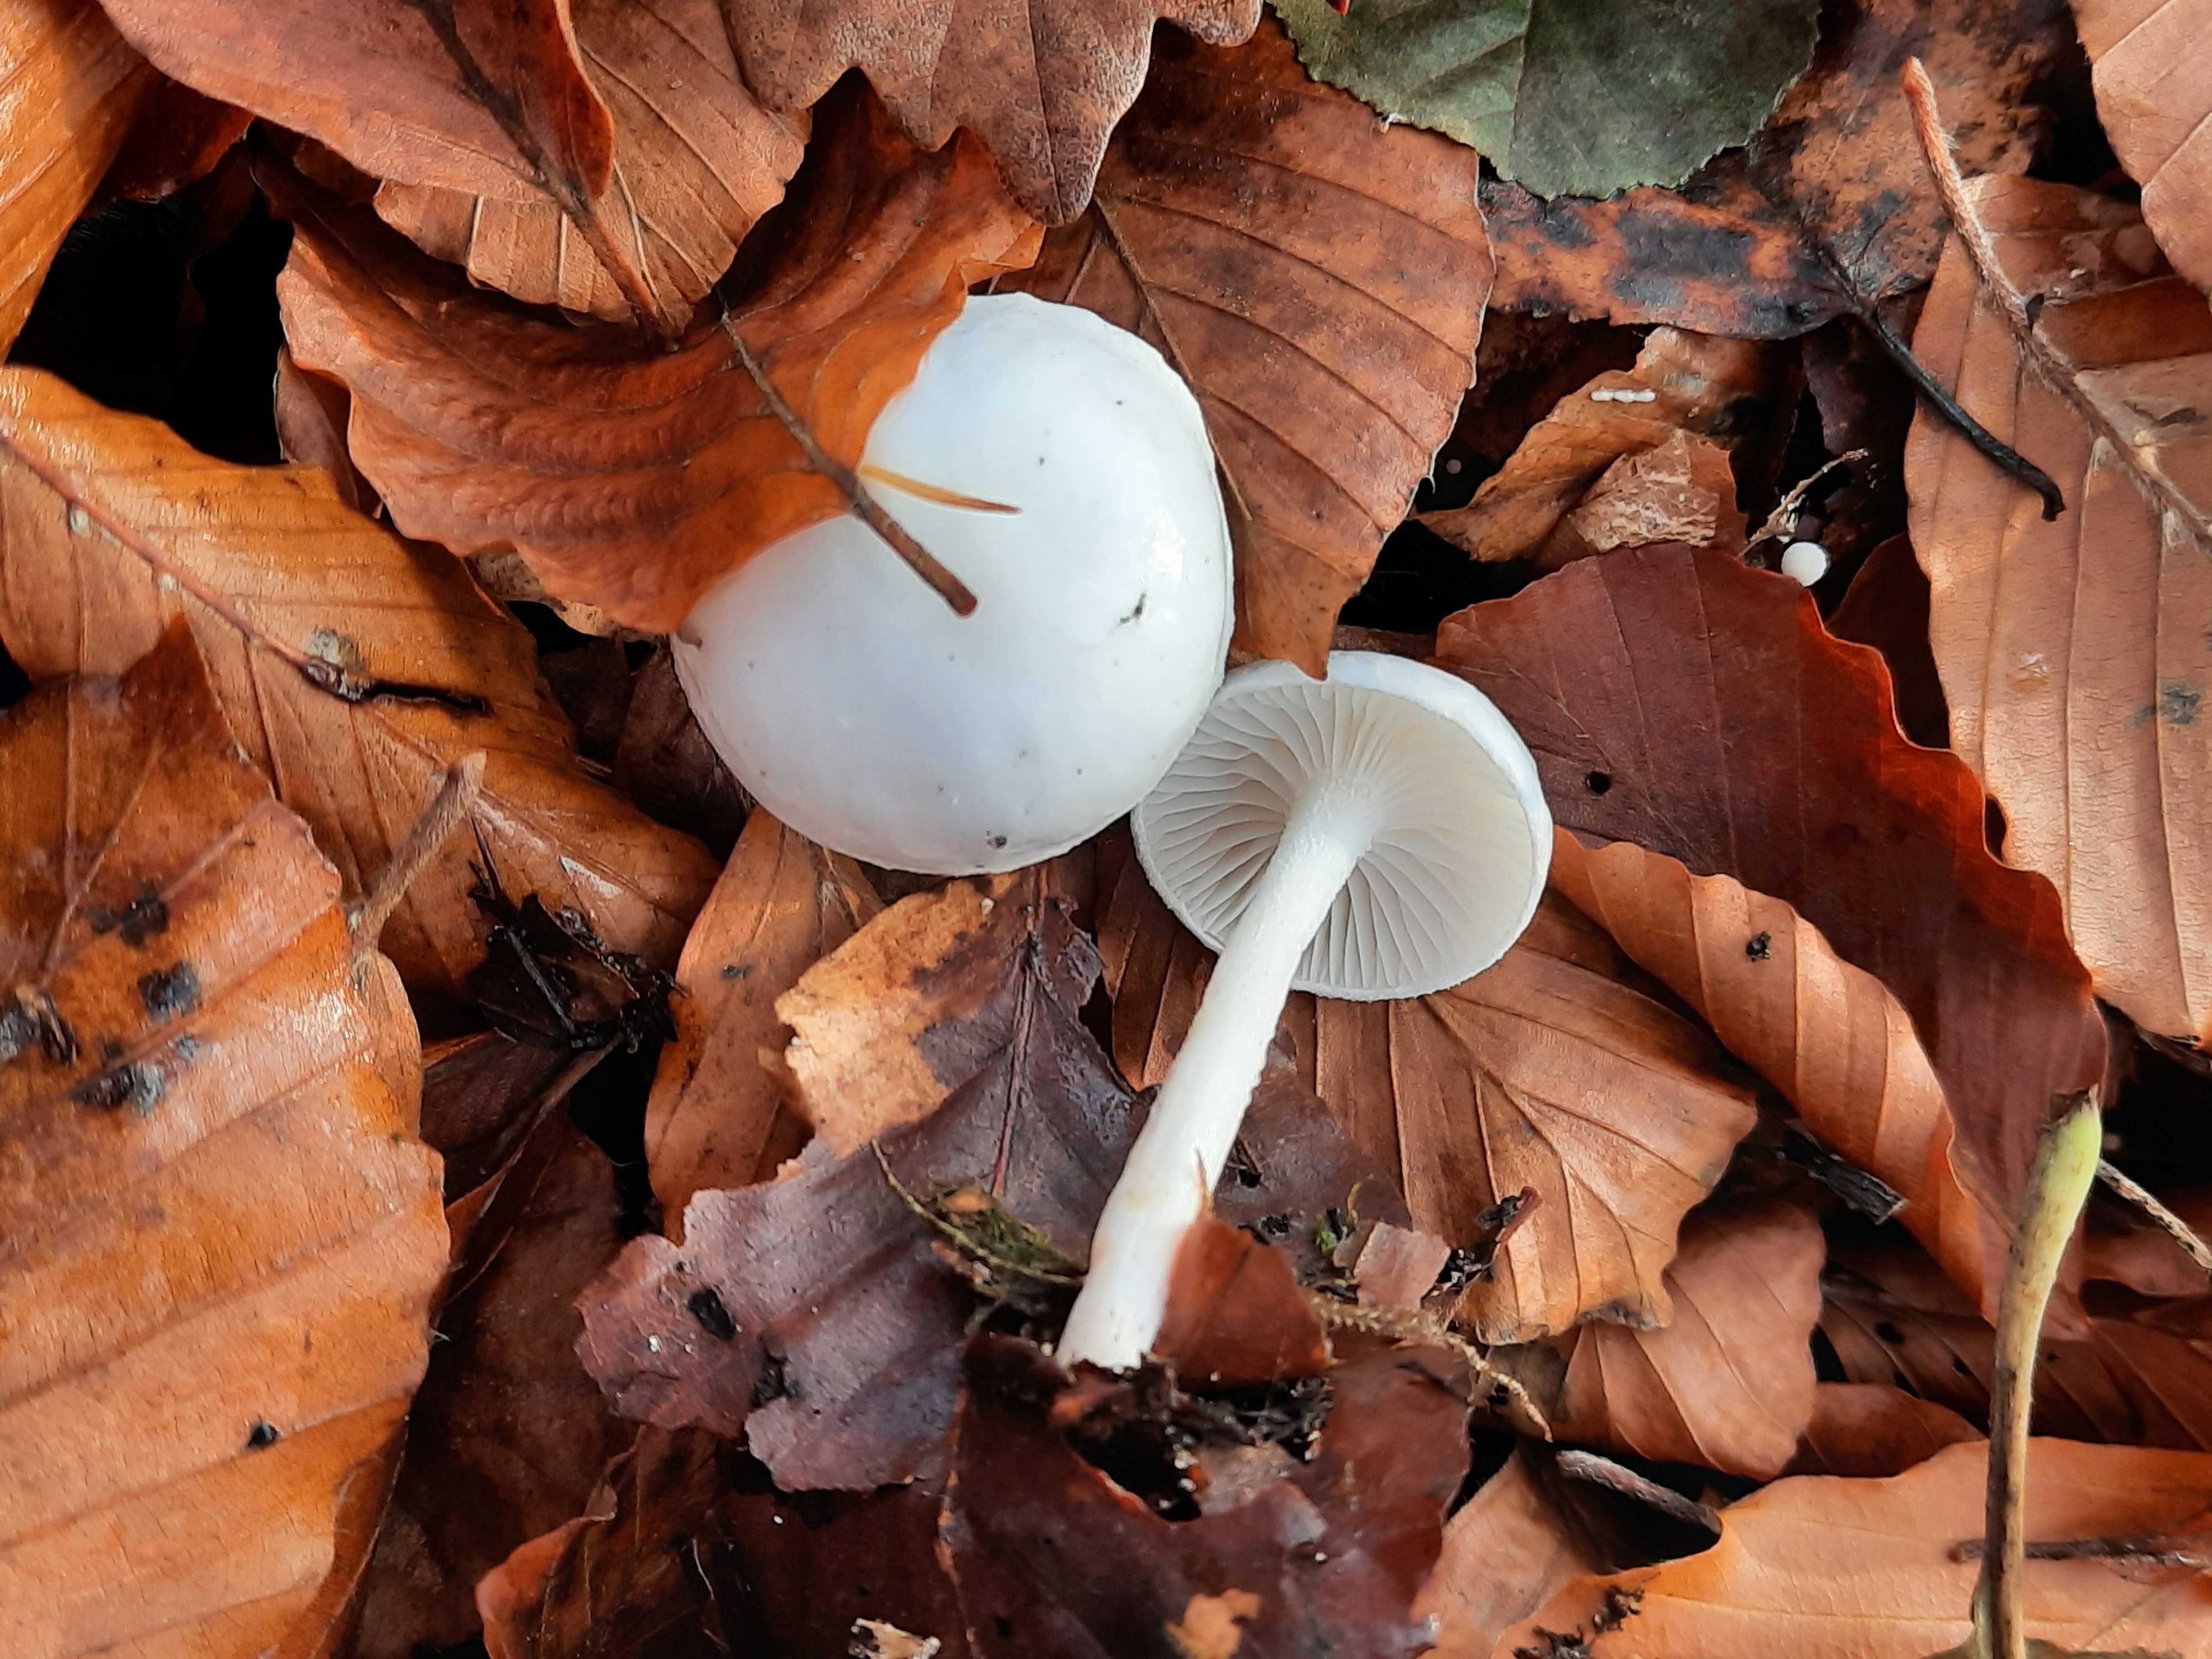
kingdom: Fungi
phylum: Basidiomycota
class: Agaricomycetes
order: Agaricales
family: Hygrophoraceae
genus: Hygrophorus
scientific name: Hygrophorus eburneus
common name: elfenbens-sneglehat
